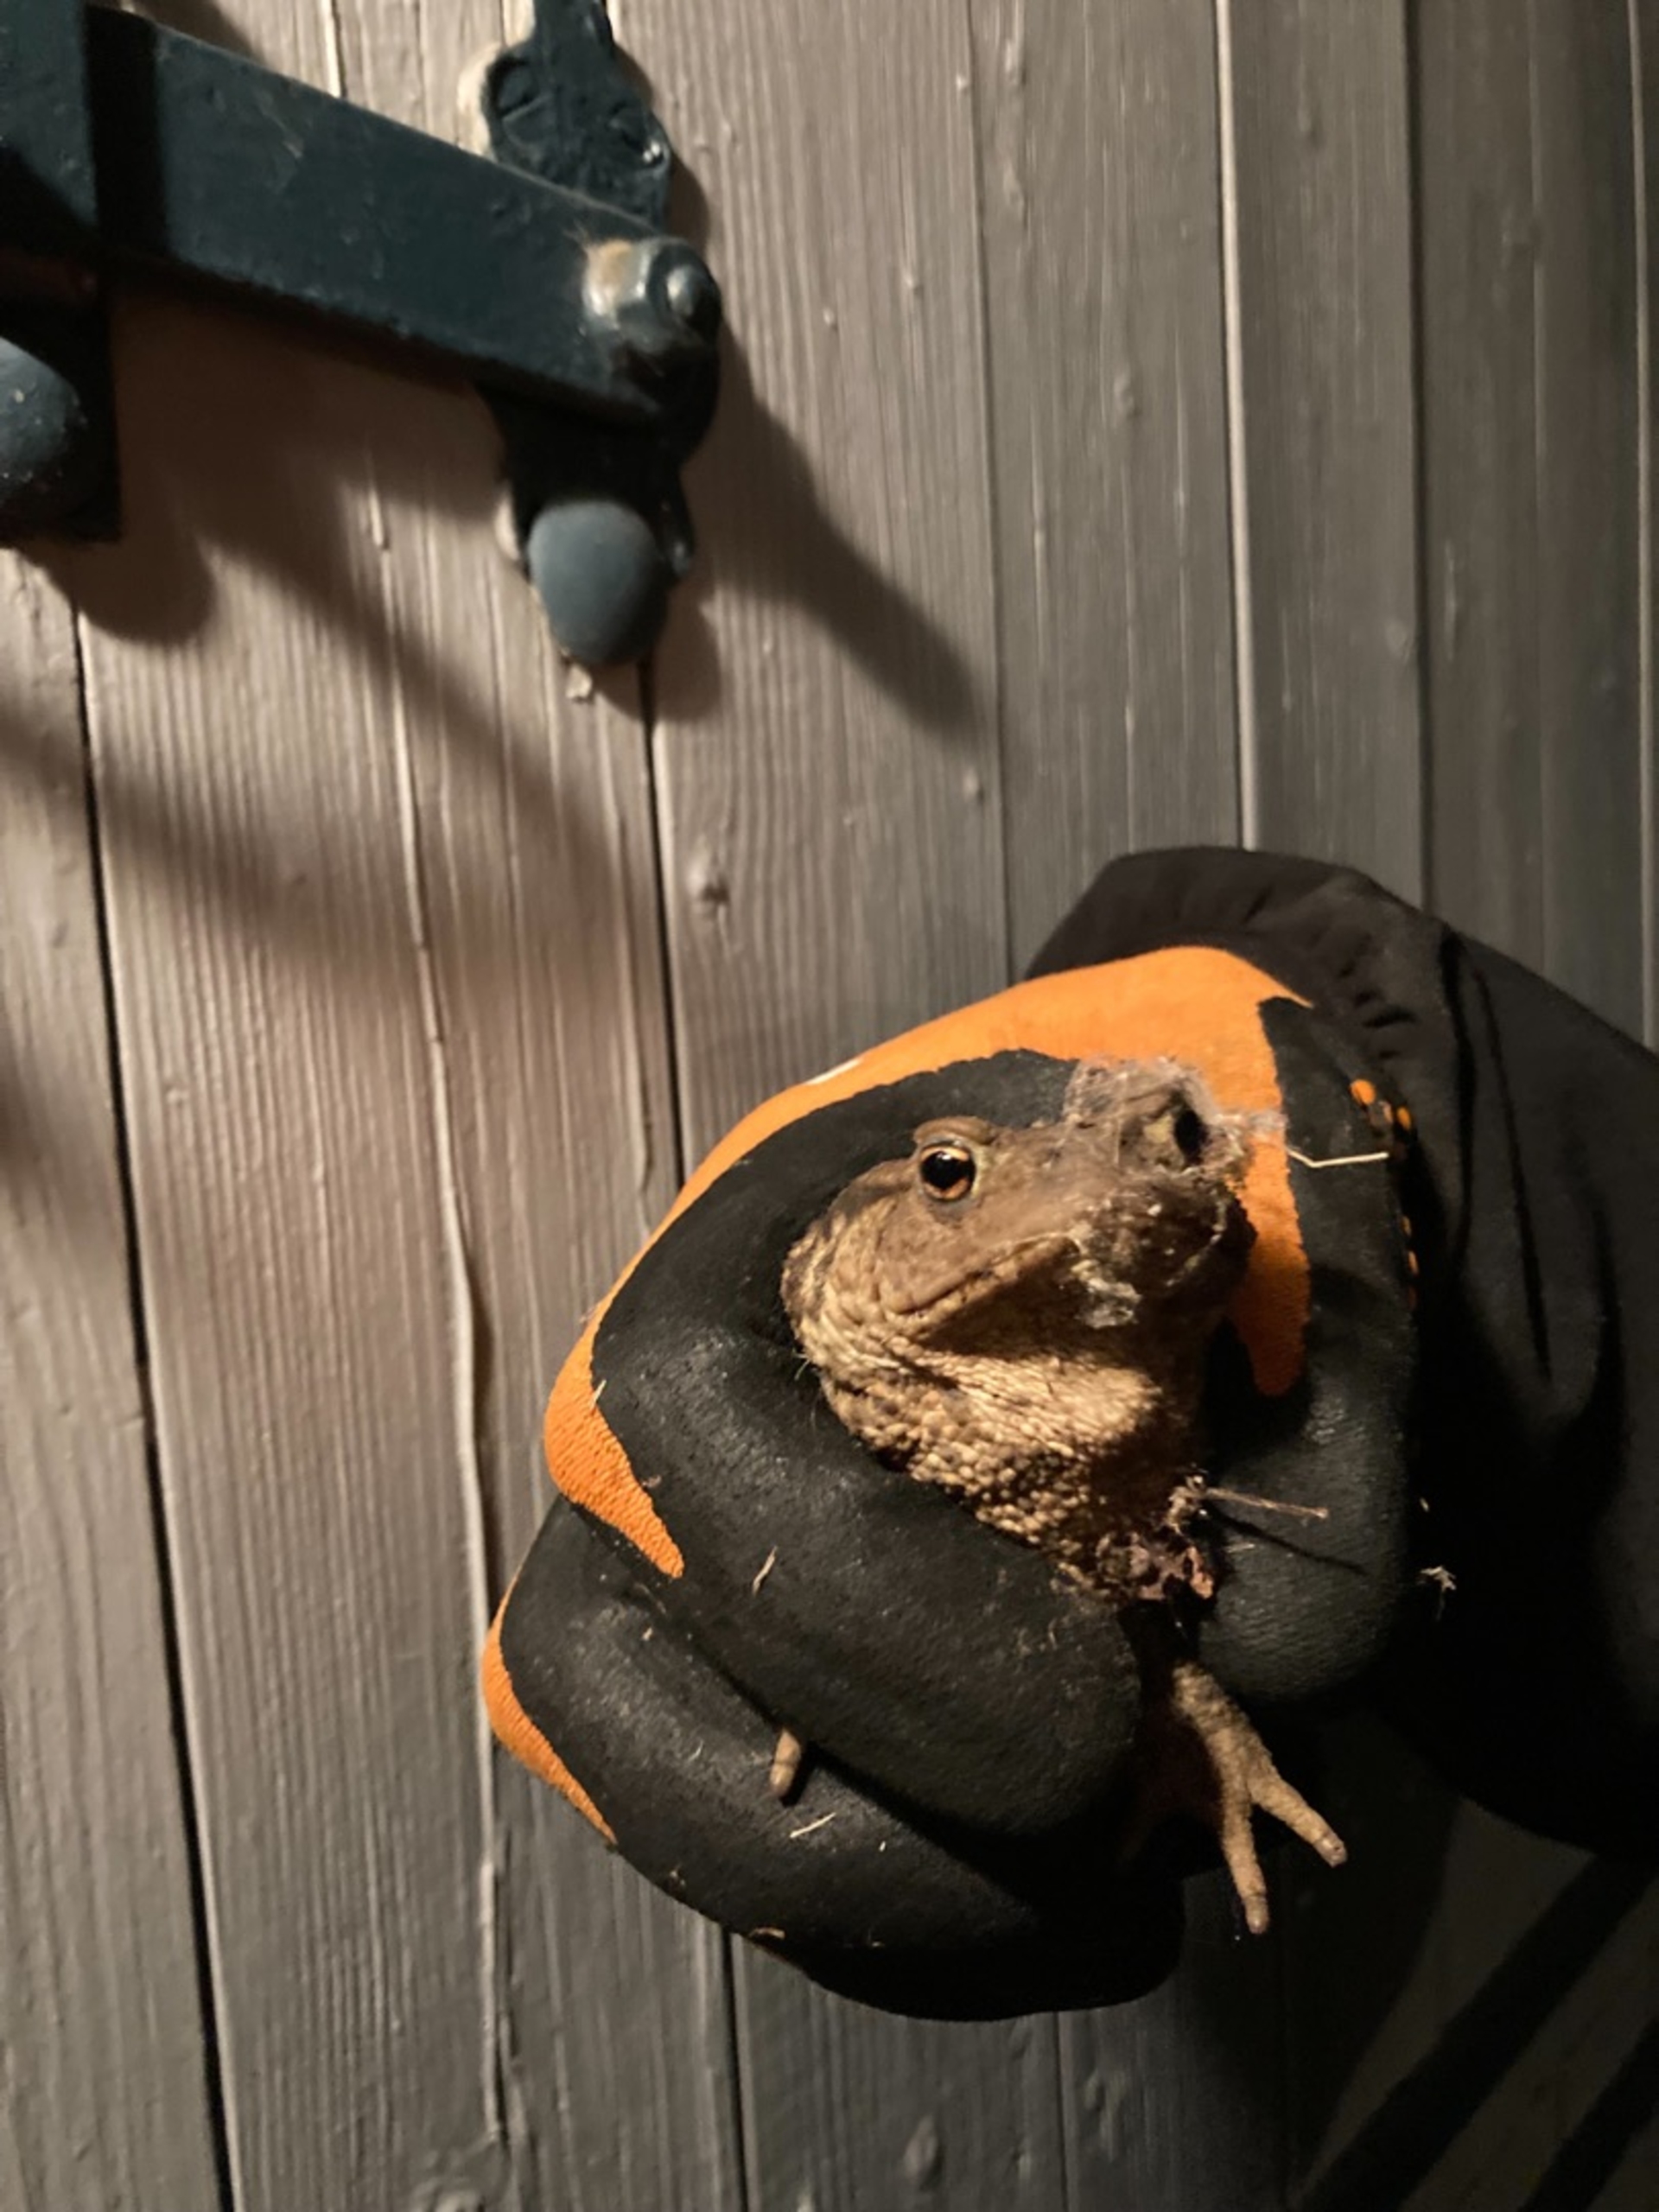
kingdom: Animalia
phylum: Chordata
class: Amphibia
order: Anura
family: Bufonidae
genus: Bufo
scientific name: Bufo bufo
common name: Skrubtudse
